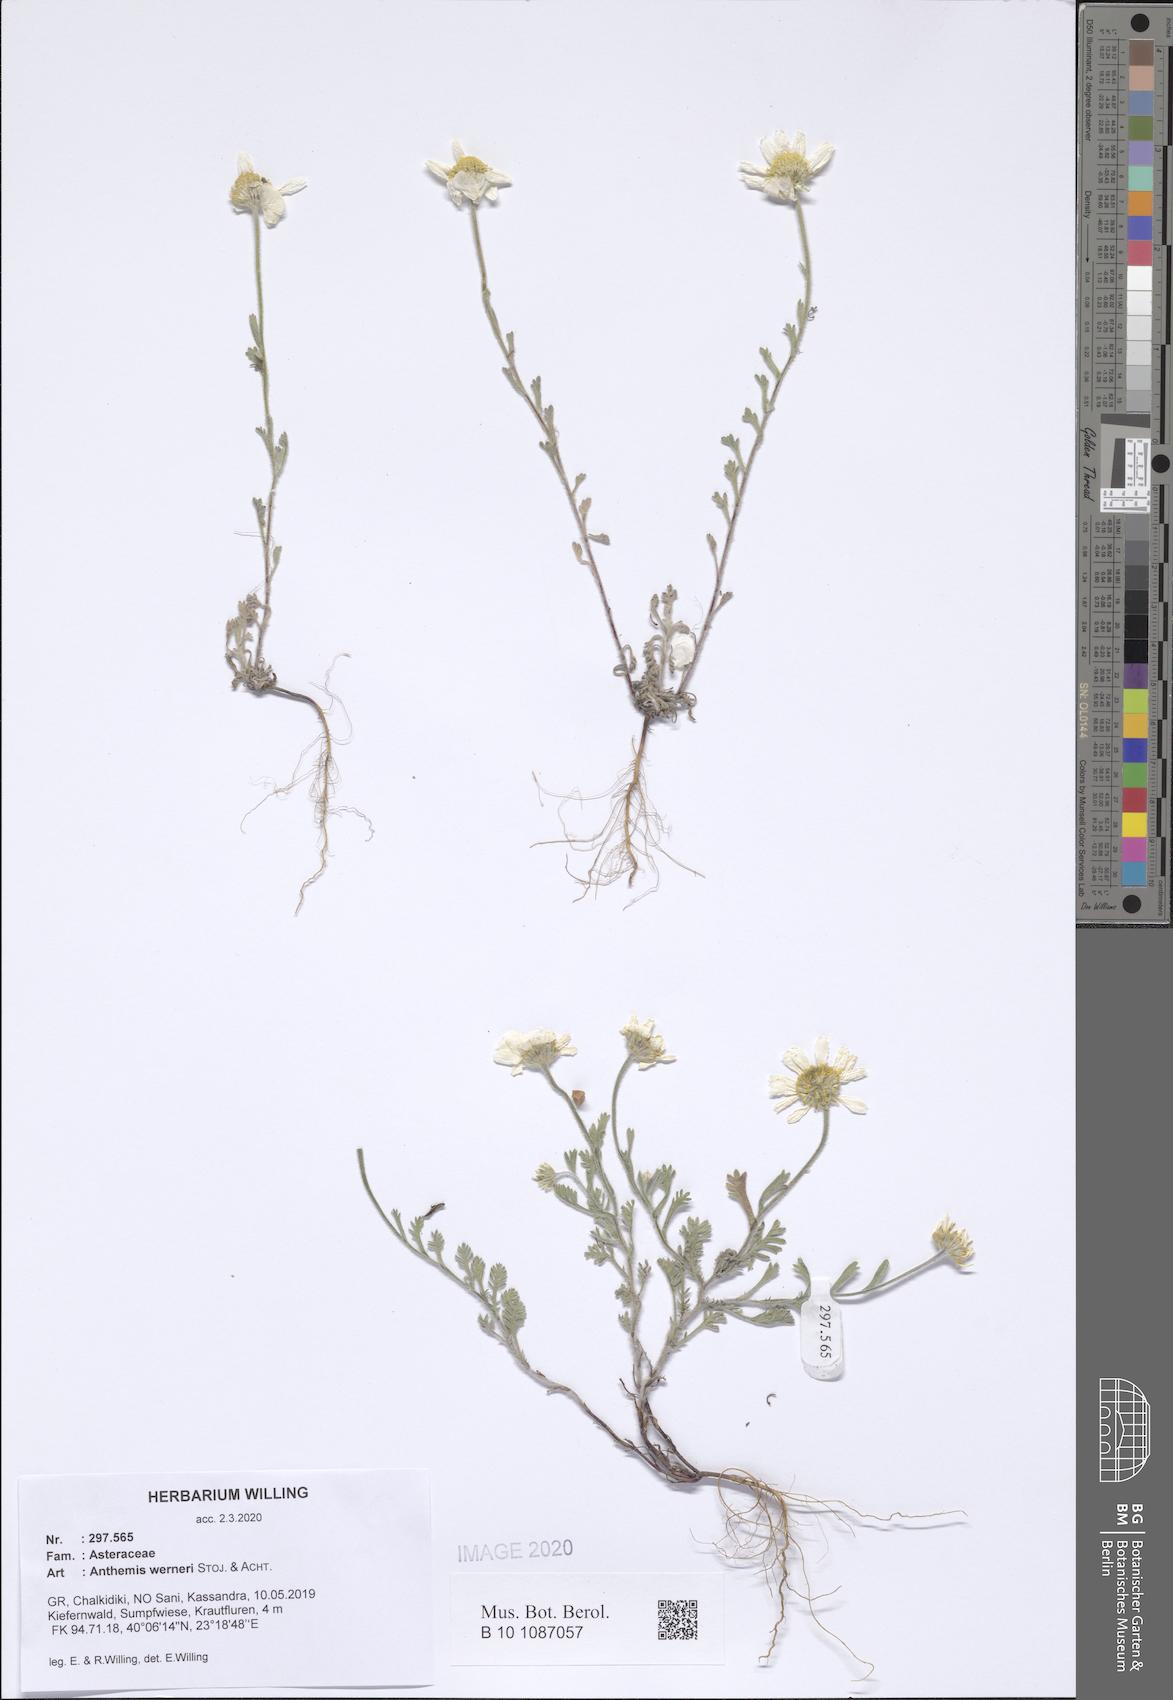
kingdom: Plantae
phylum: Tracheophyta
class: Magnoliopsida
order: Asterales
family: Asteraceae
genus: Anthemis
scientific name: Anthemis werneri
